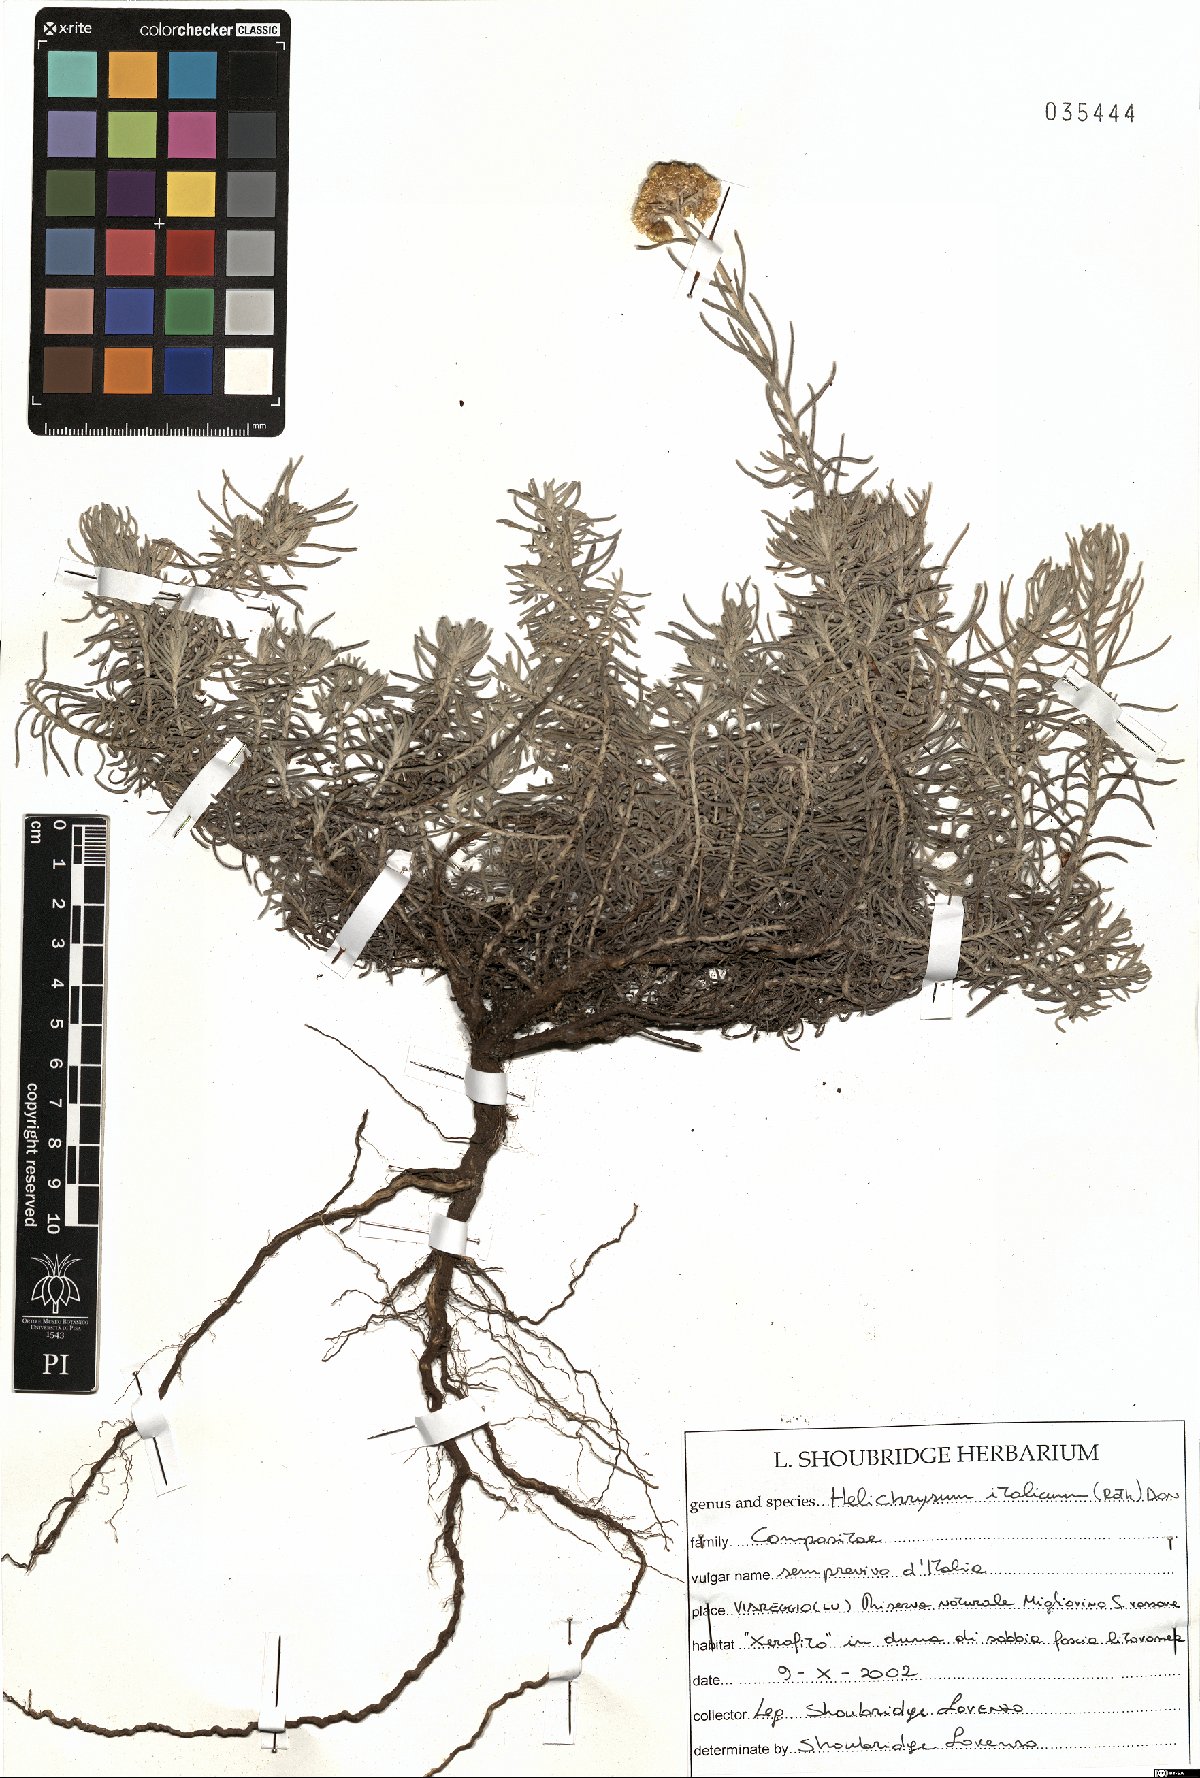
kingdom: Plantae
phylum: Tracheophyta
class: Magnoliopsida
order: Asterales
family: Asteraceae
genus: Helichrysum
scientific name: Helichrysum italicum
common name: Curryplant
